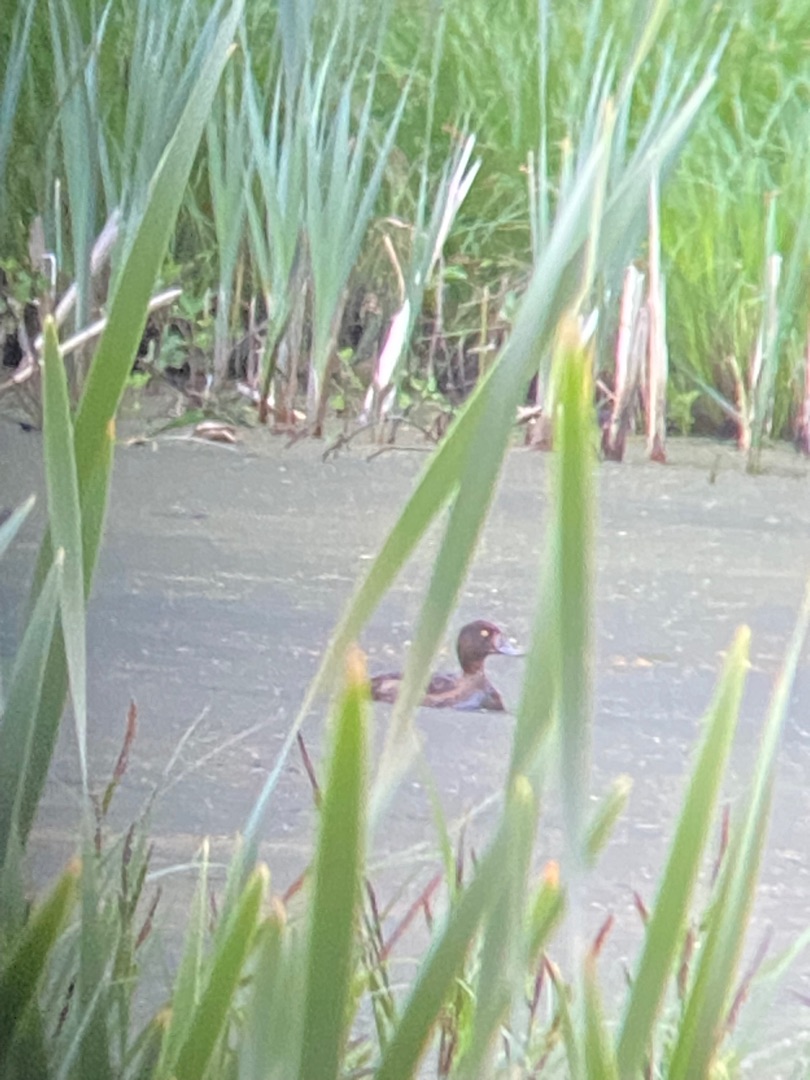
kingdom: Animalia
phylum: Chordata
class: Aves
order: Anseriformes
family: Anatidae
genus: Aythya
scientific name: Aythya fuligula
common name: Troldand
